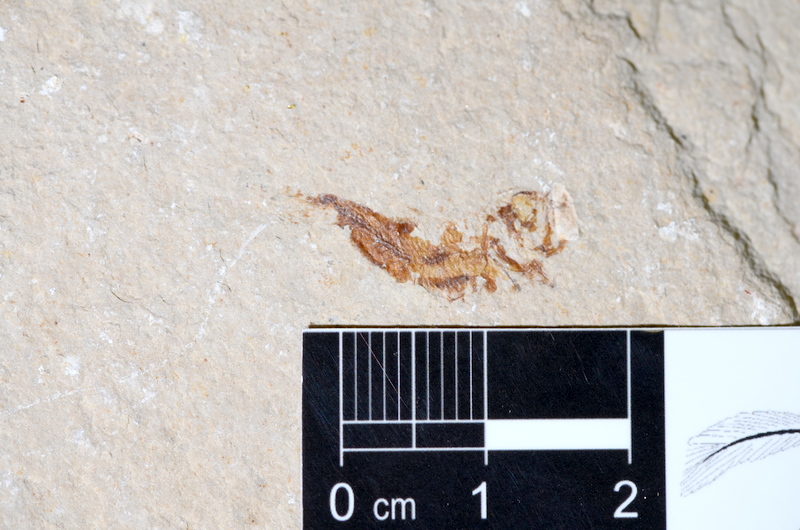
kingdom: Animalia
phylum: Chordata
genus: Phoenicolepis
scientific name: Phoenicolepis
